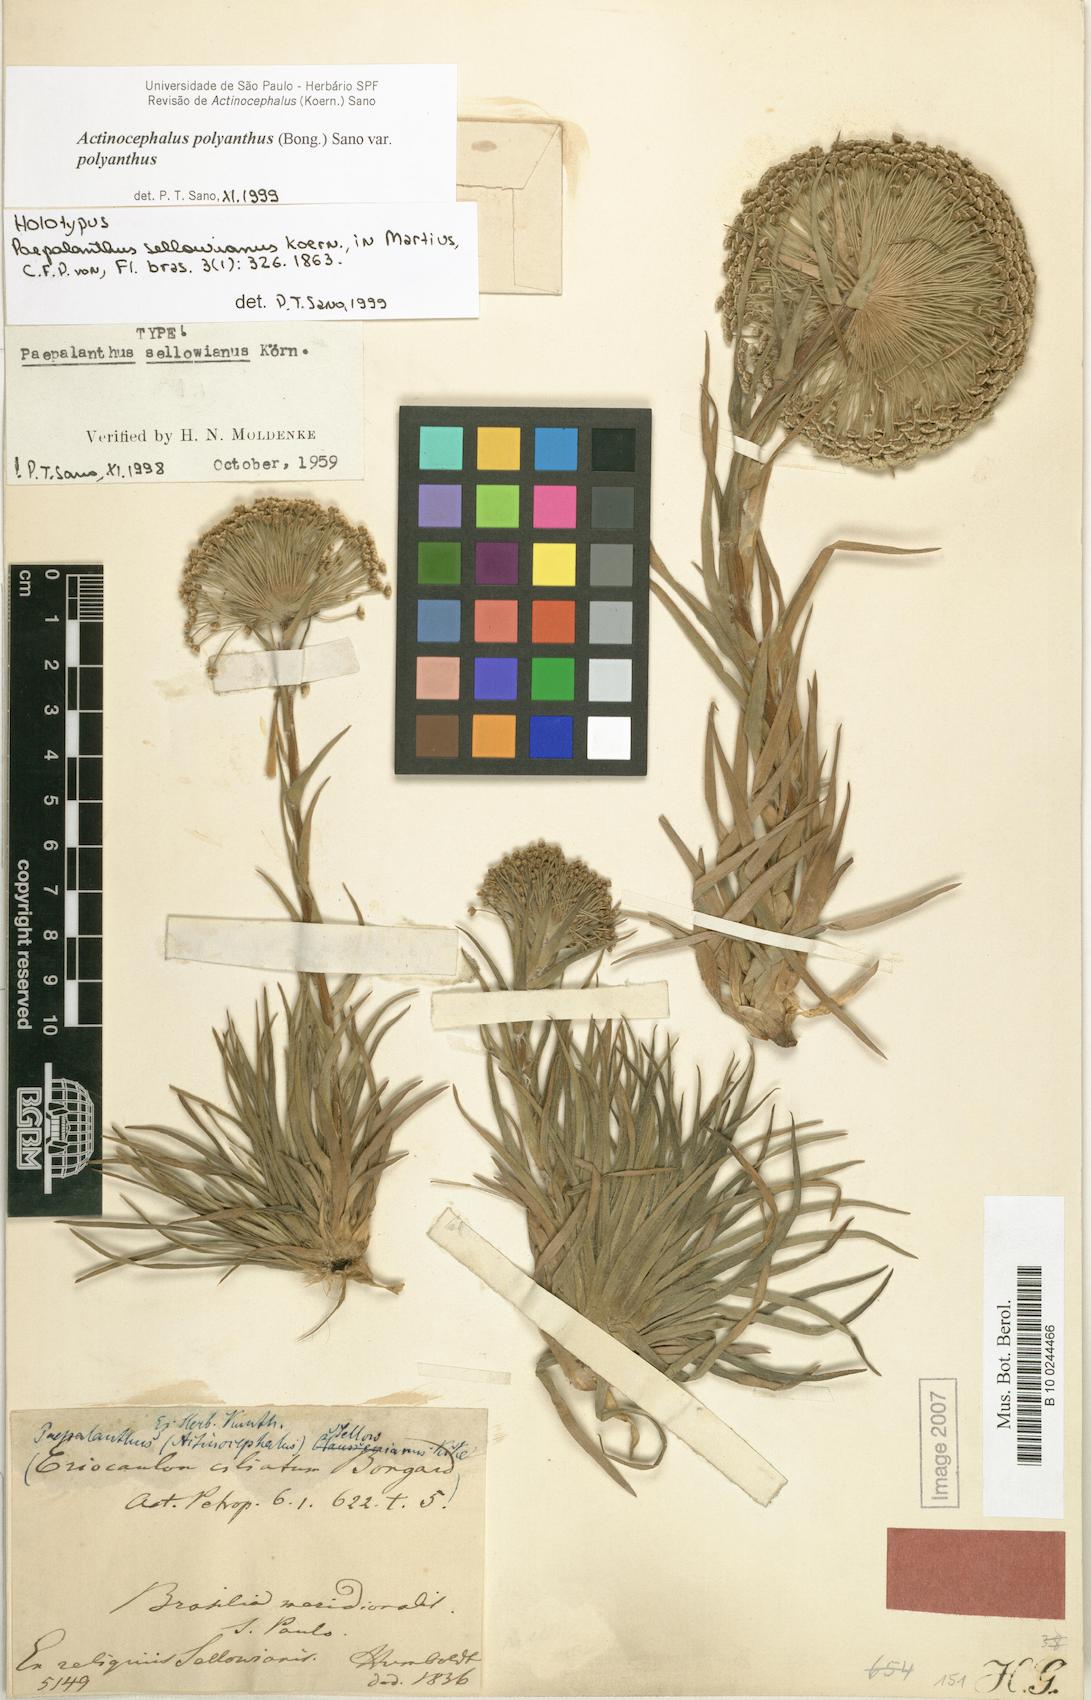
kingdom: Plantae
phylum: Tracheophyta
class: Liliopsida
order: Poales
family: Eriocaulaceae
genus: Paepalanthus
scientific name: Paepalanthus polyanthus
